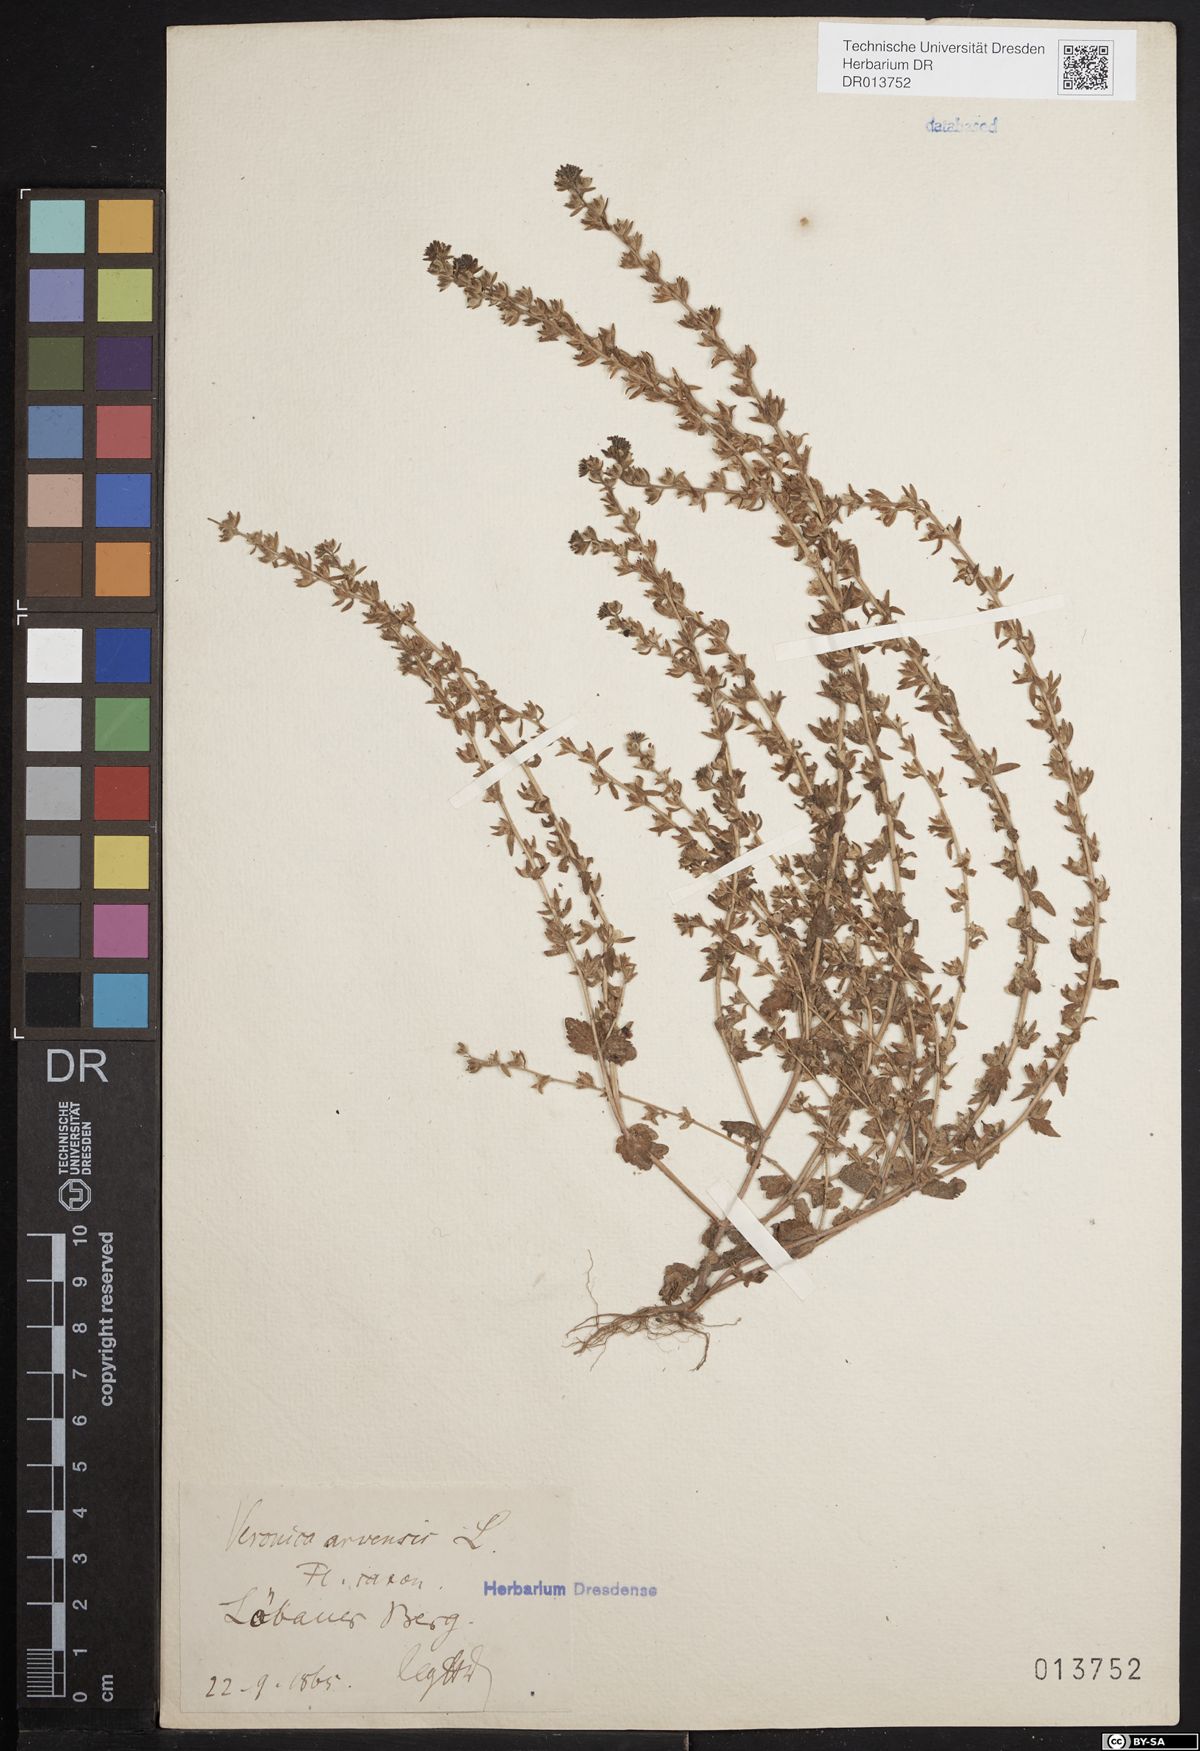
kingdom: Plantae
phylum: Tracheophyta
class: Magnoliopsida
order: Lamiales
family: Plantaginaceae
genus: Veronica
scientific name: Veronica arvensis
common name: Corn speedwell
